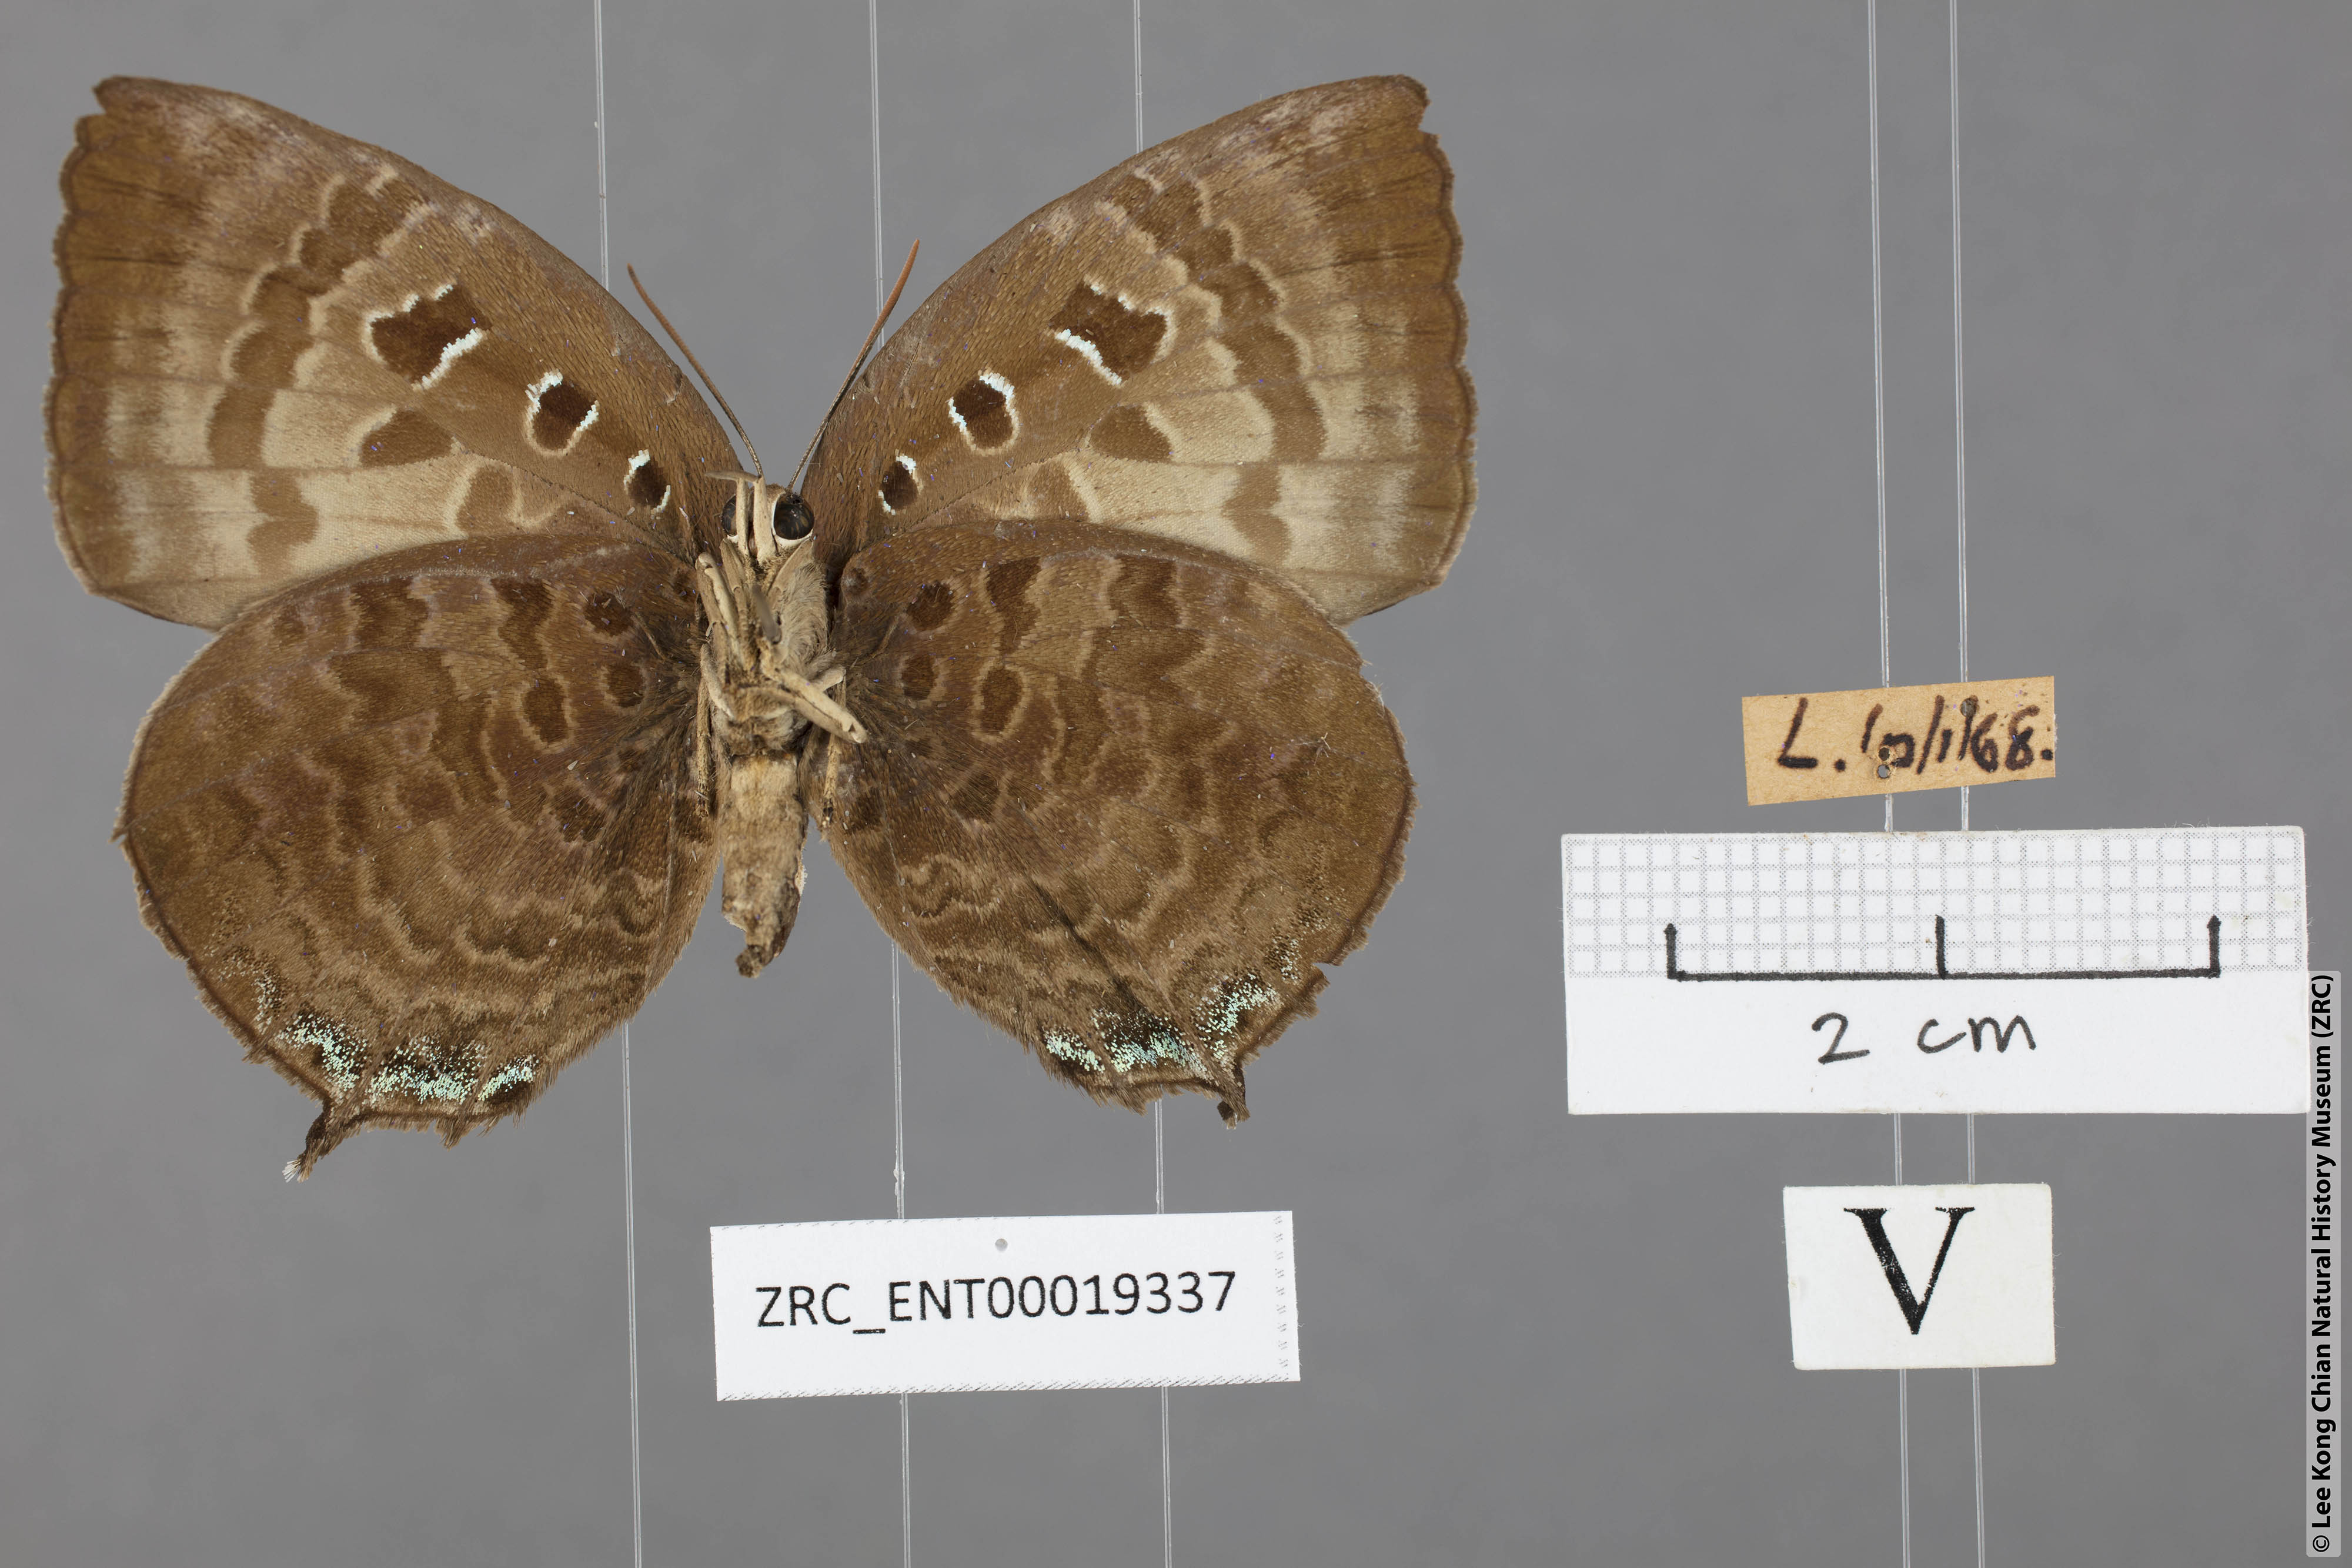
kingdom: Animalia
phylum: Arthropoda
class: Insecta
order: Lepidoptera
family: Lycaenidae
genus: Arhopala
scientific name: Arhopala centaurus
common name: Dull oak-blue
